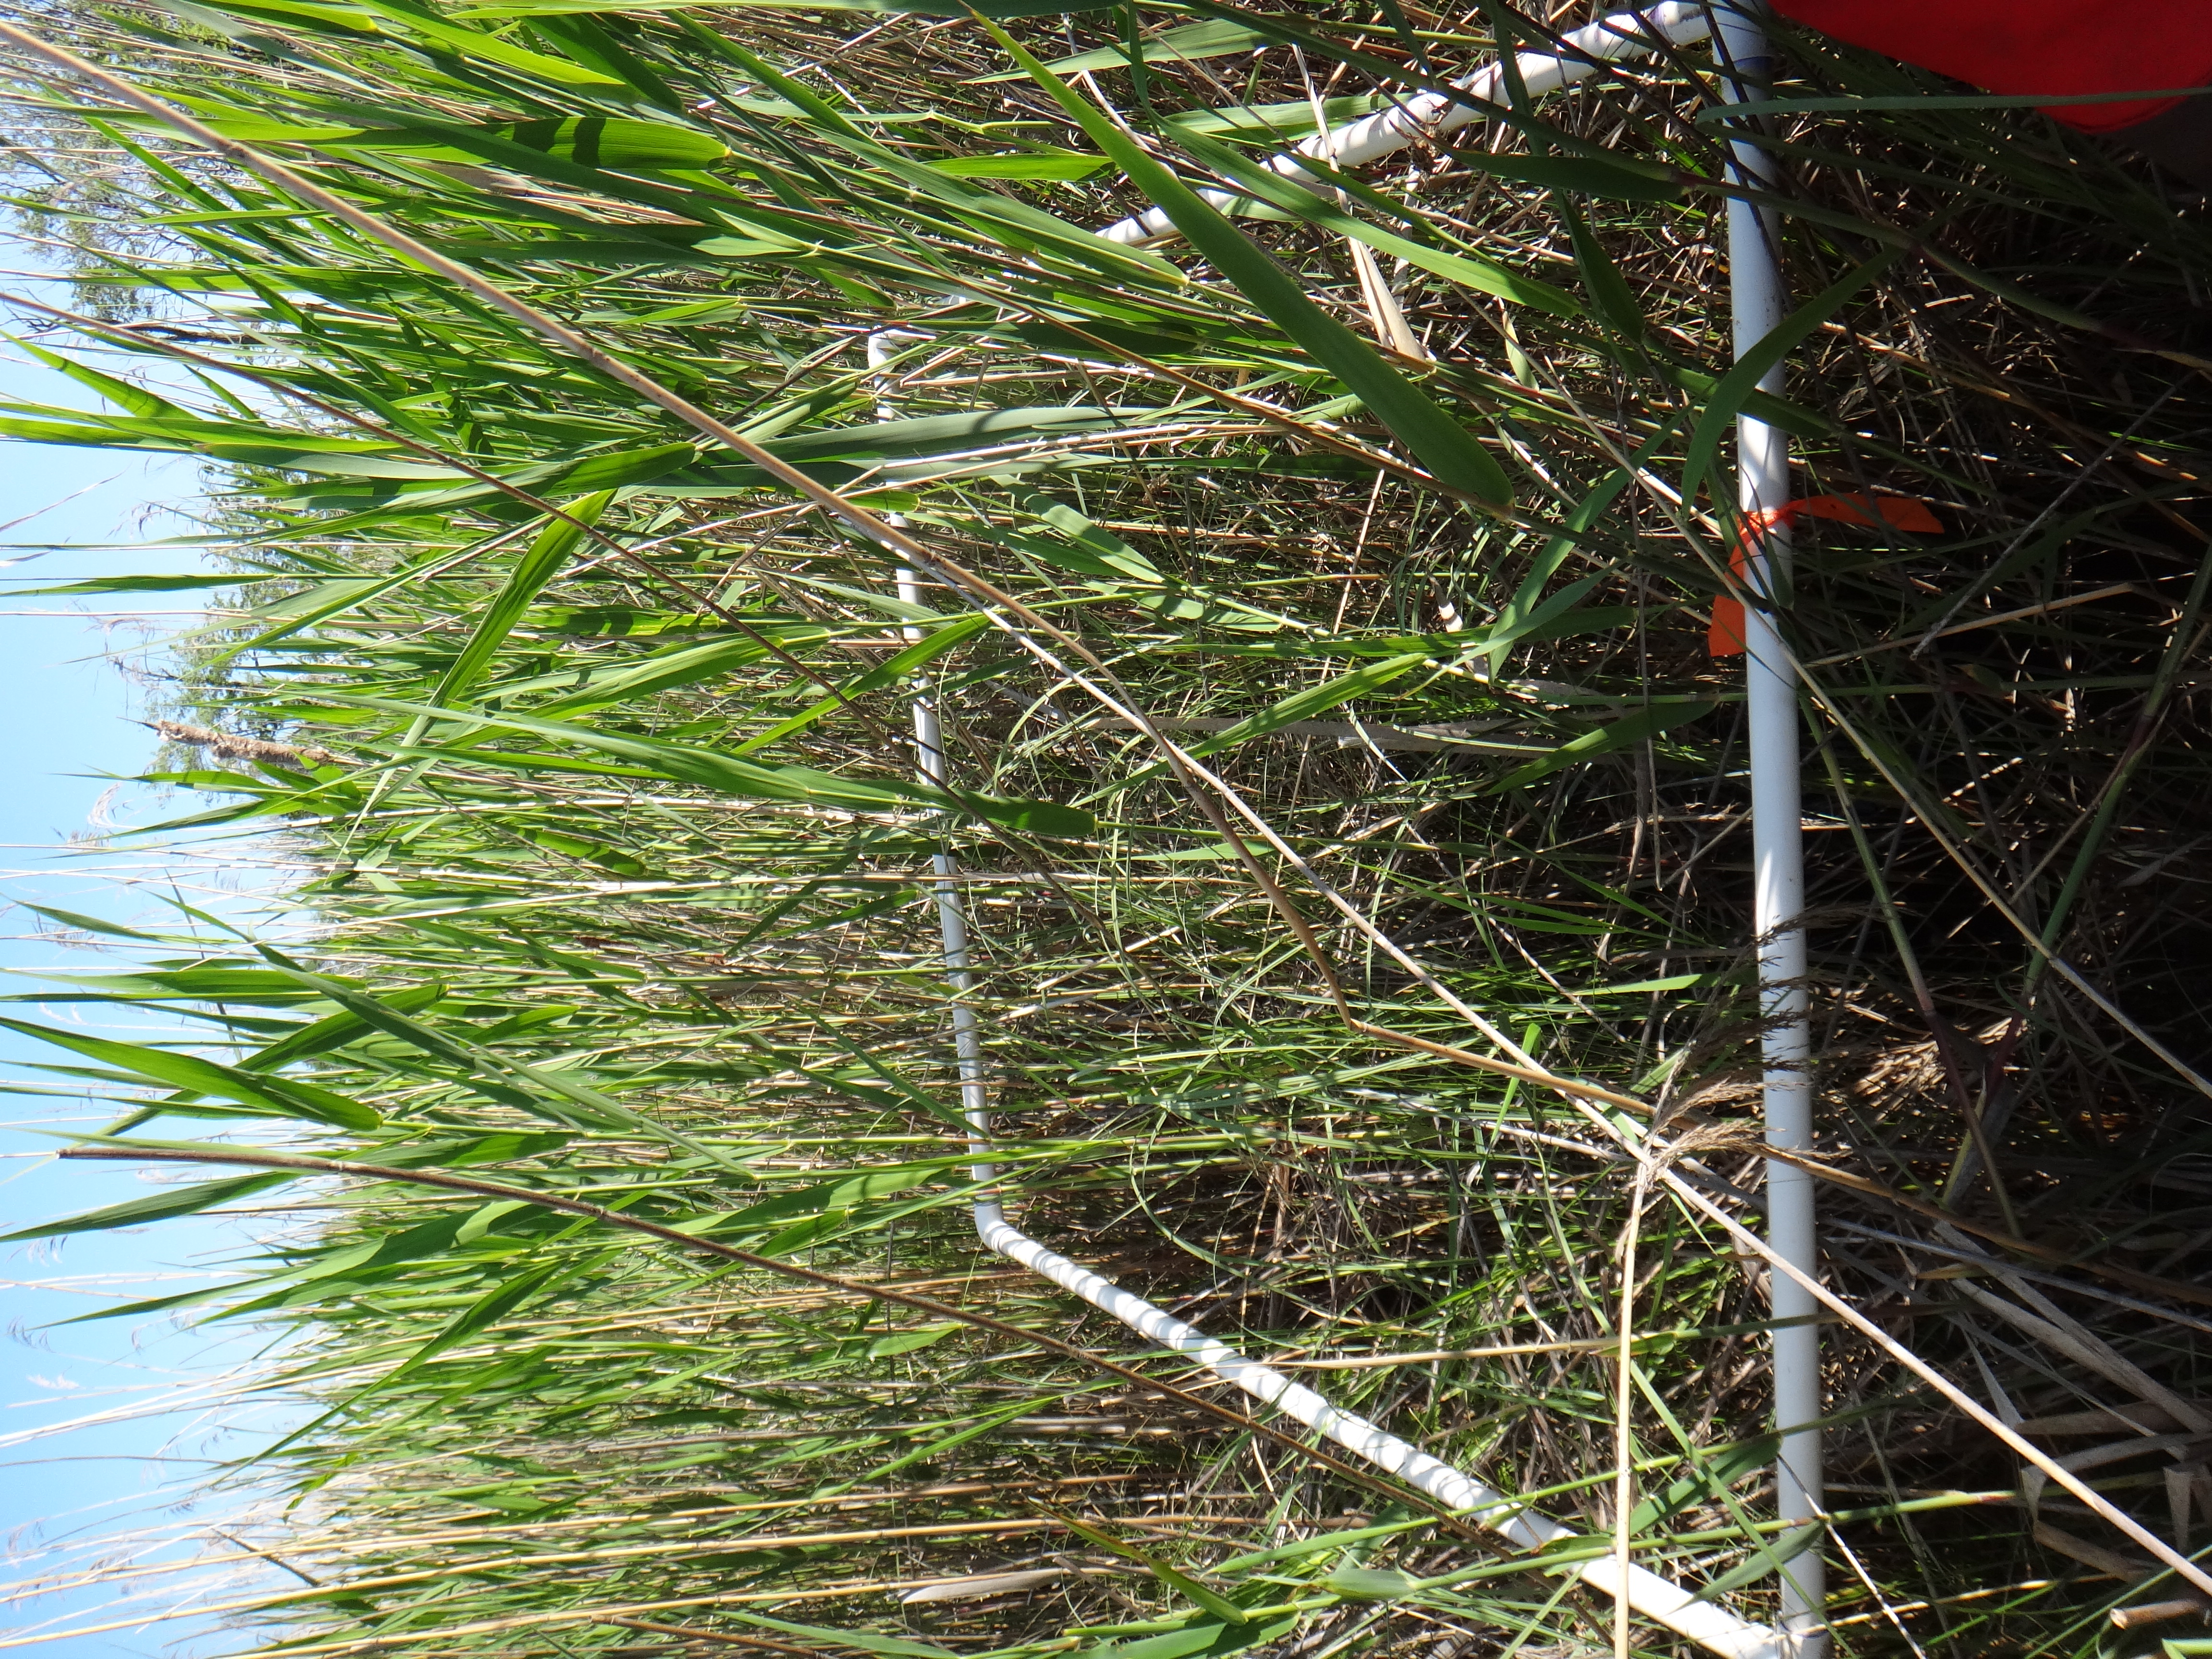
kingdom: Plantae
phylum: Tracheophyta
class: Liliopsida
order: Poales
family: Poaceae
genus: Phragmites
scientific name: Phragmites australis
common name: Common reed
